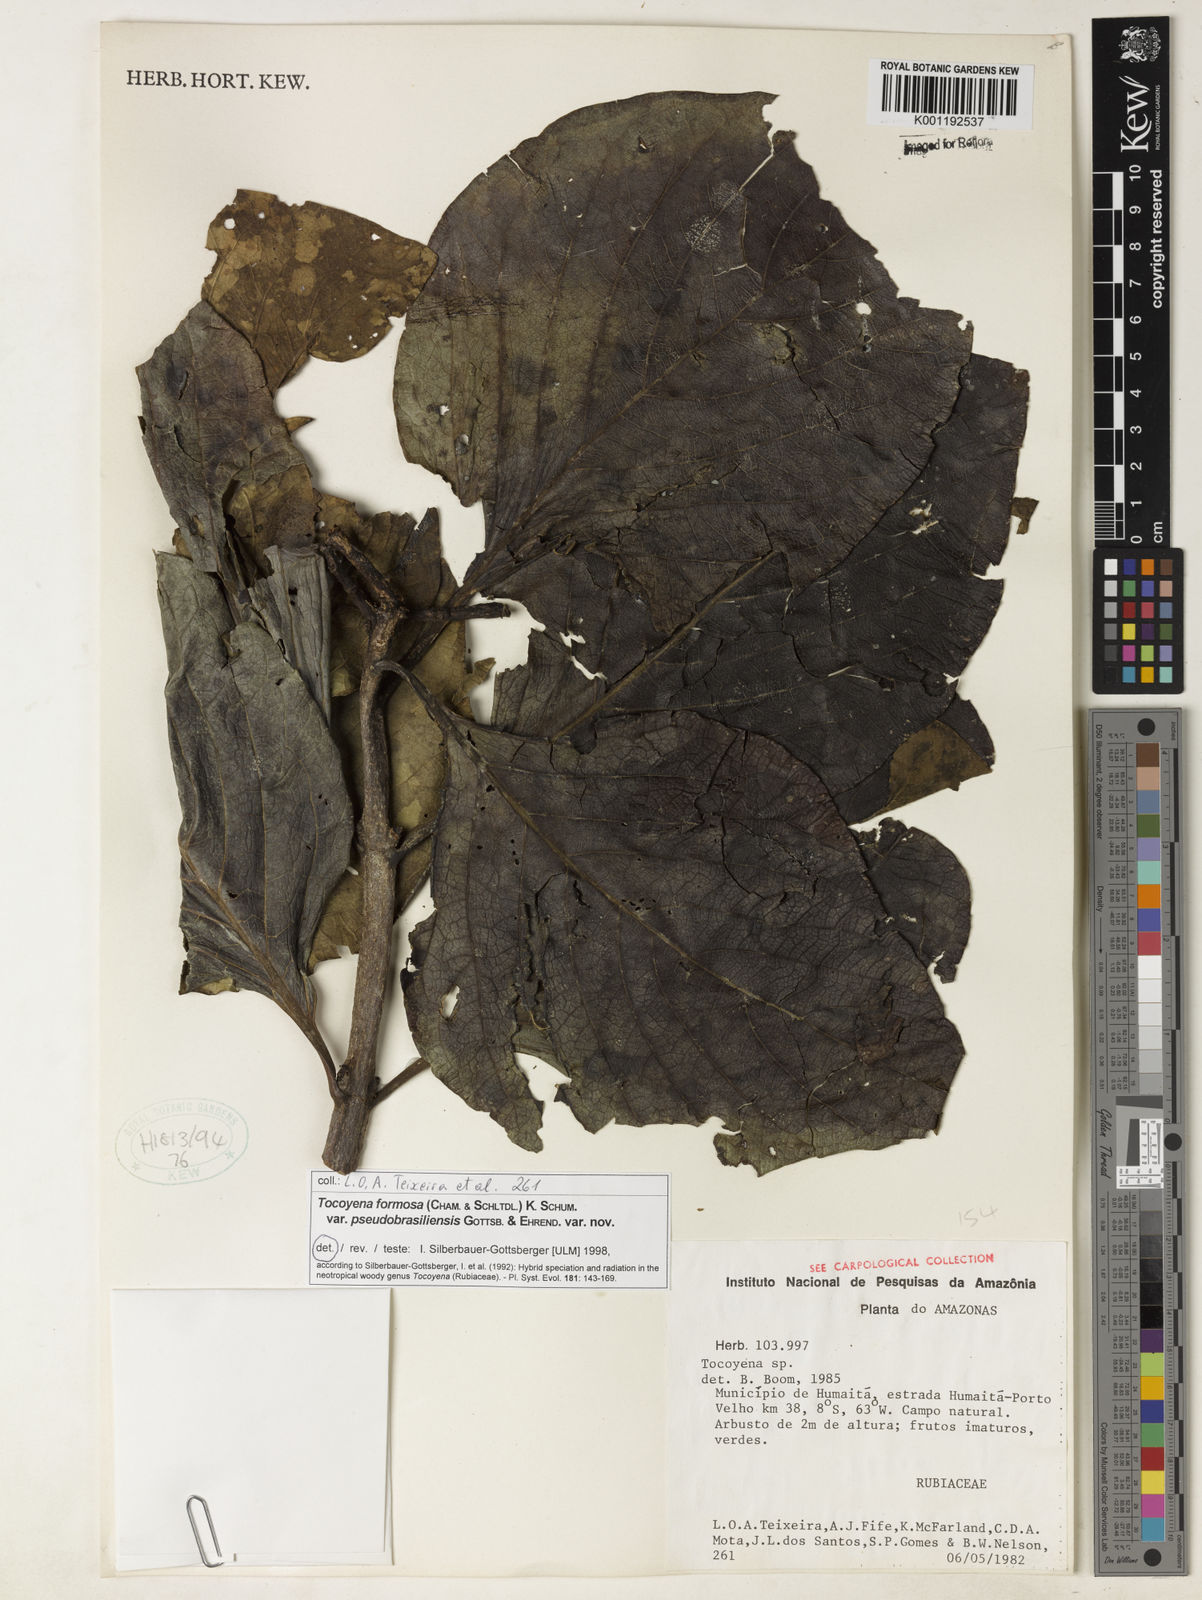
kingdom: Plantae
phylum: Tracheophyta
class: Magnoliopsida
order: Gentianales
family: Rubiaceae
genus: Tocoyena
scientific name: Tocoyena formosa
